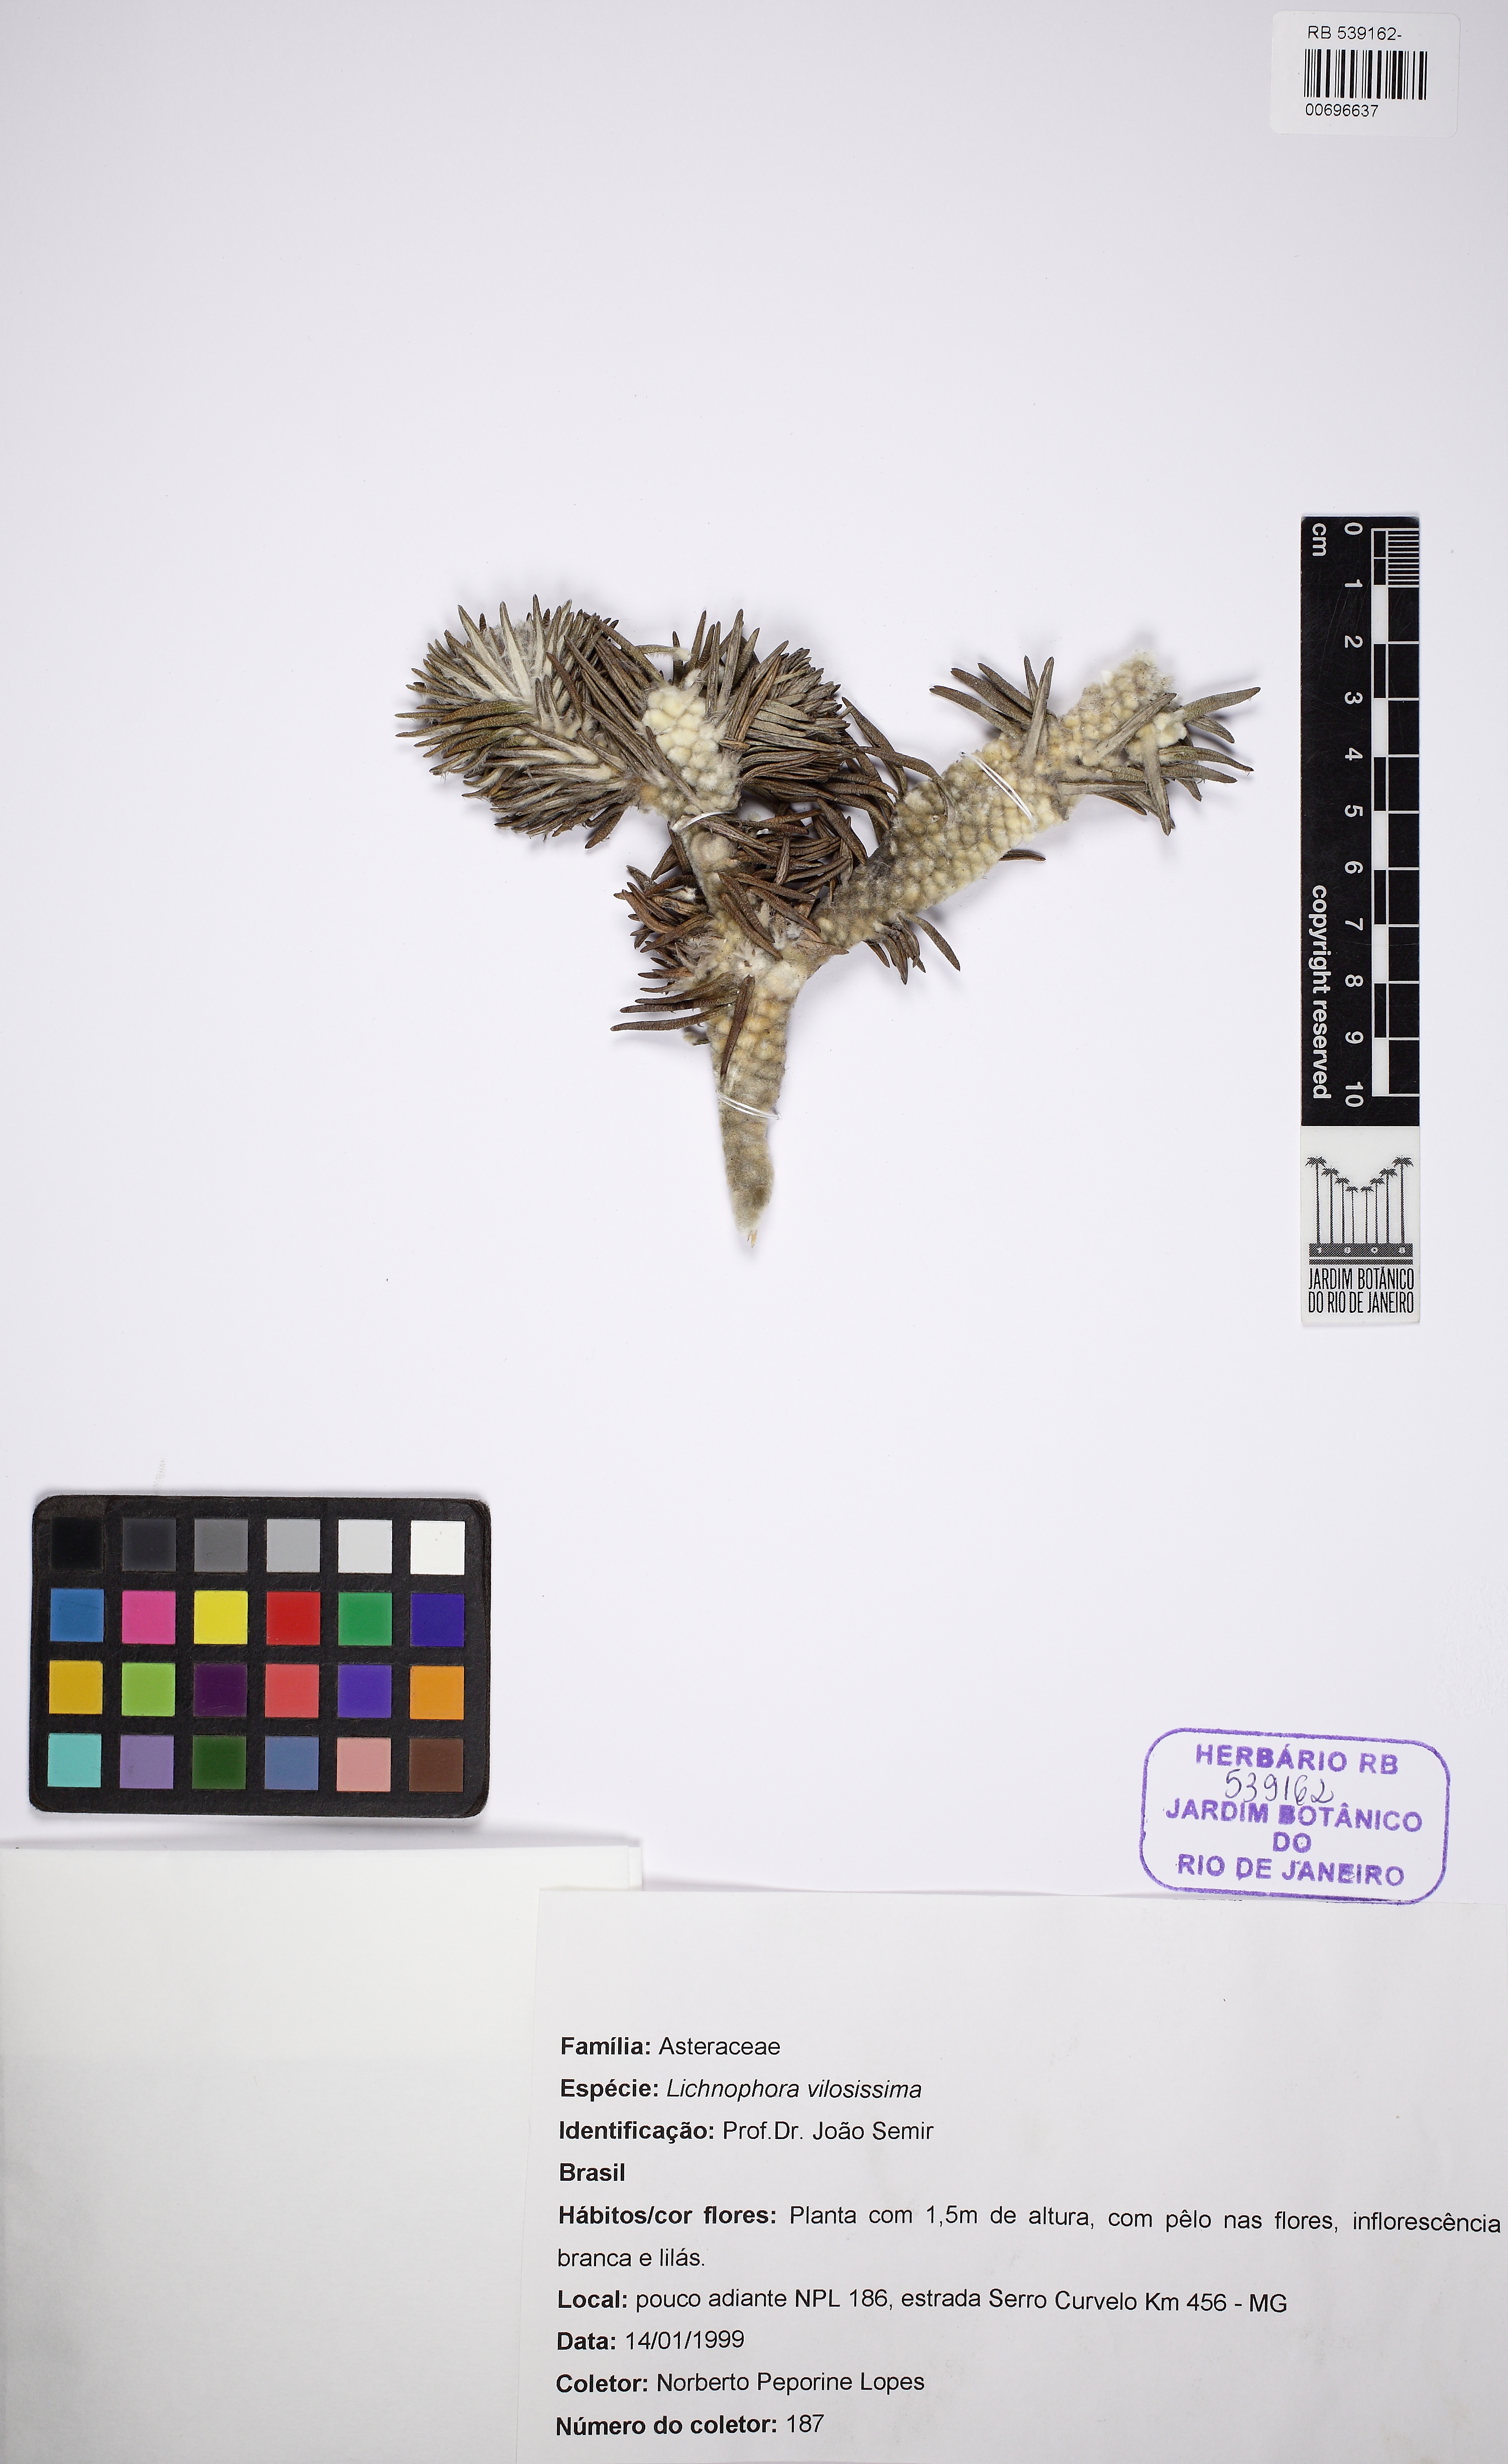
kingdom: Plantae
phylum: Tracheophyta
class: Magnoliopsida
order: Asterales
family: Asteraceae
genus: Lychnophora
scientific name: Lychnophora villosissima
